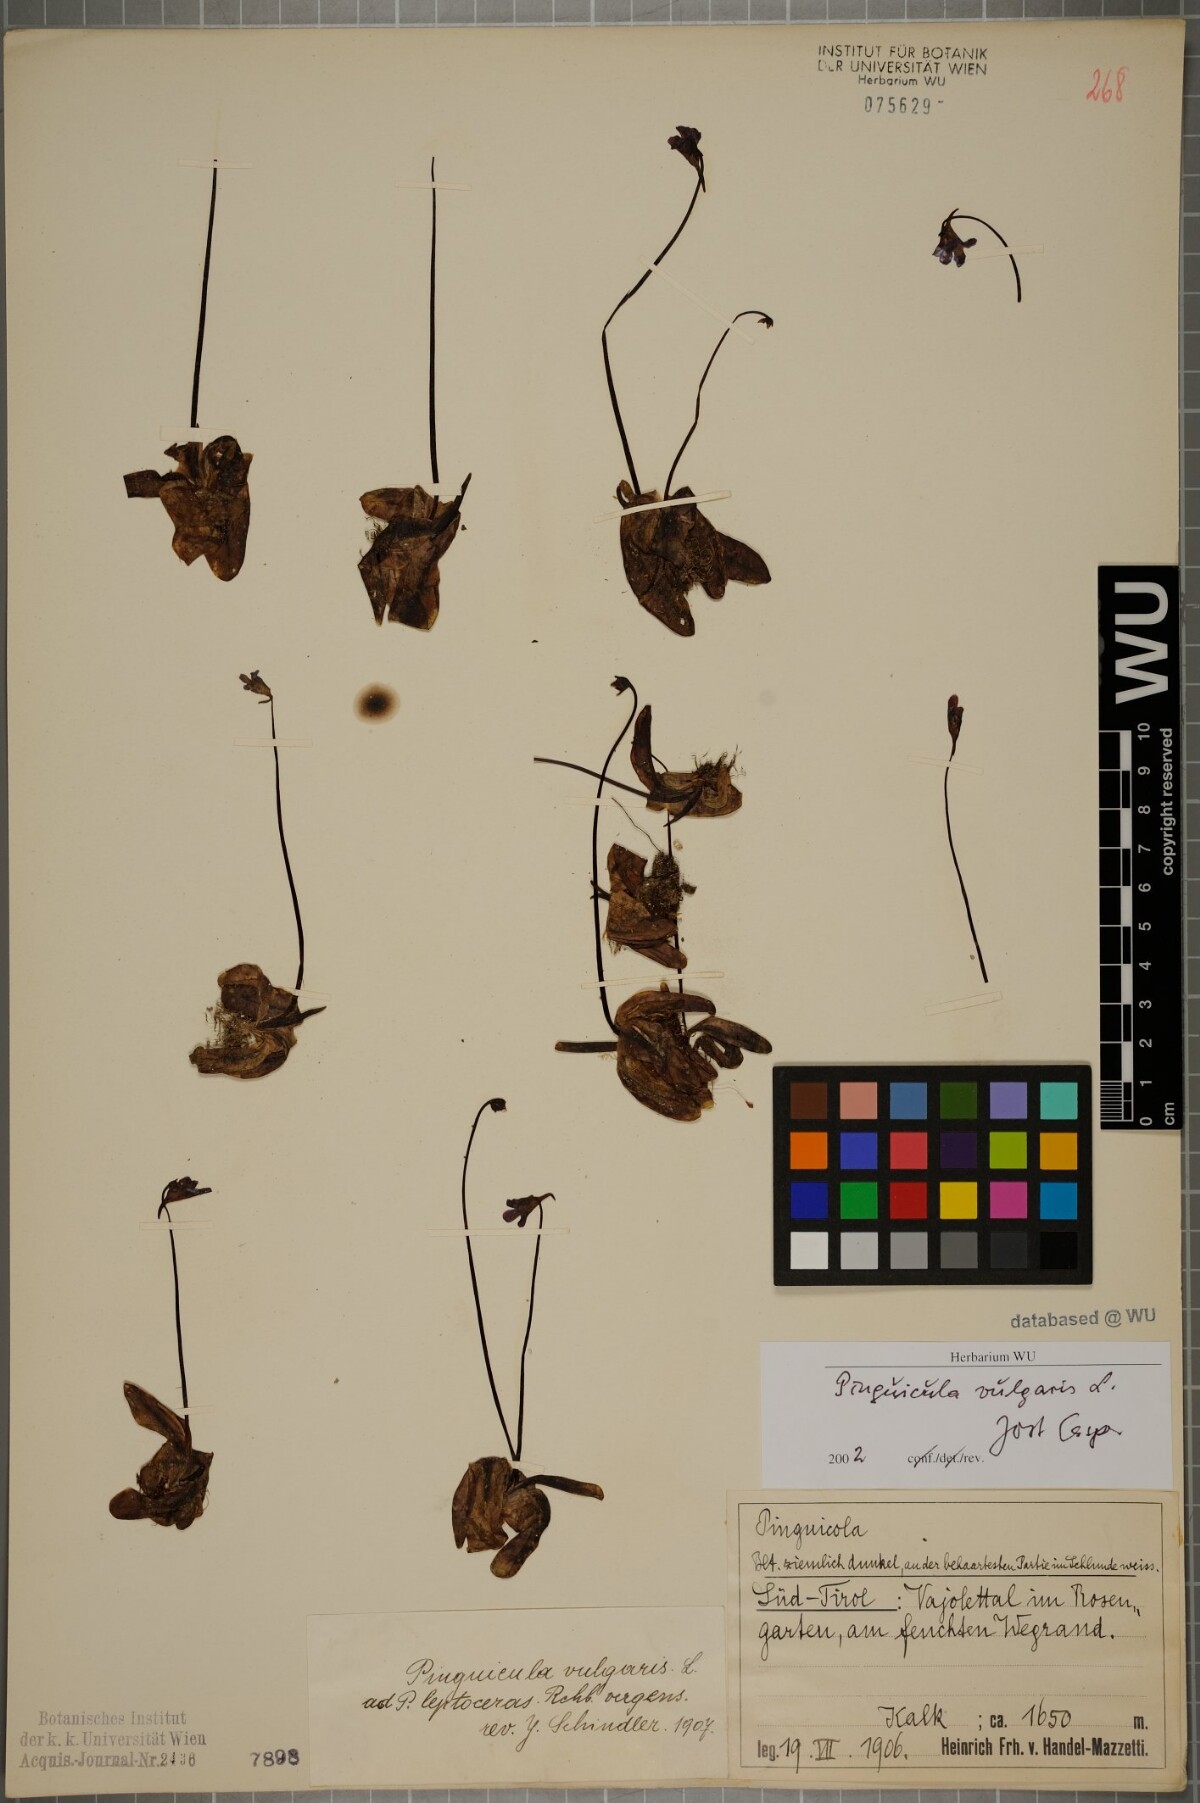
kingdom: Plantae
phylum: Tracheophyta
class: Magnoliopsida
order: Lamiales
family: Lentibulariaceae
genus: Pinguicula
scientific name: Pinguicula vulgaris
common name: Common butterwort
